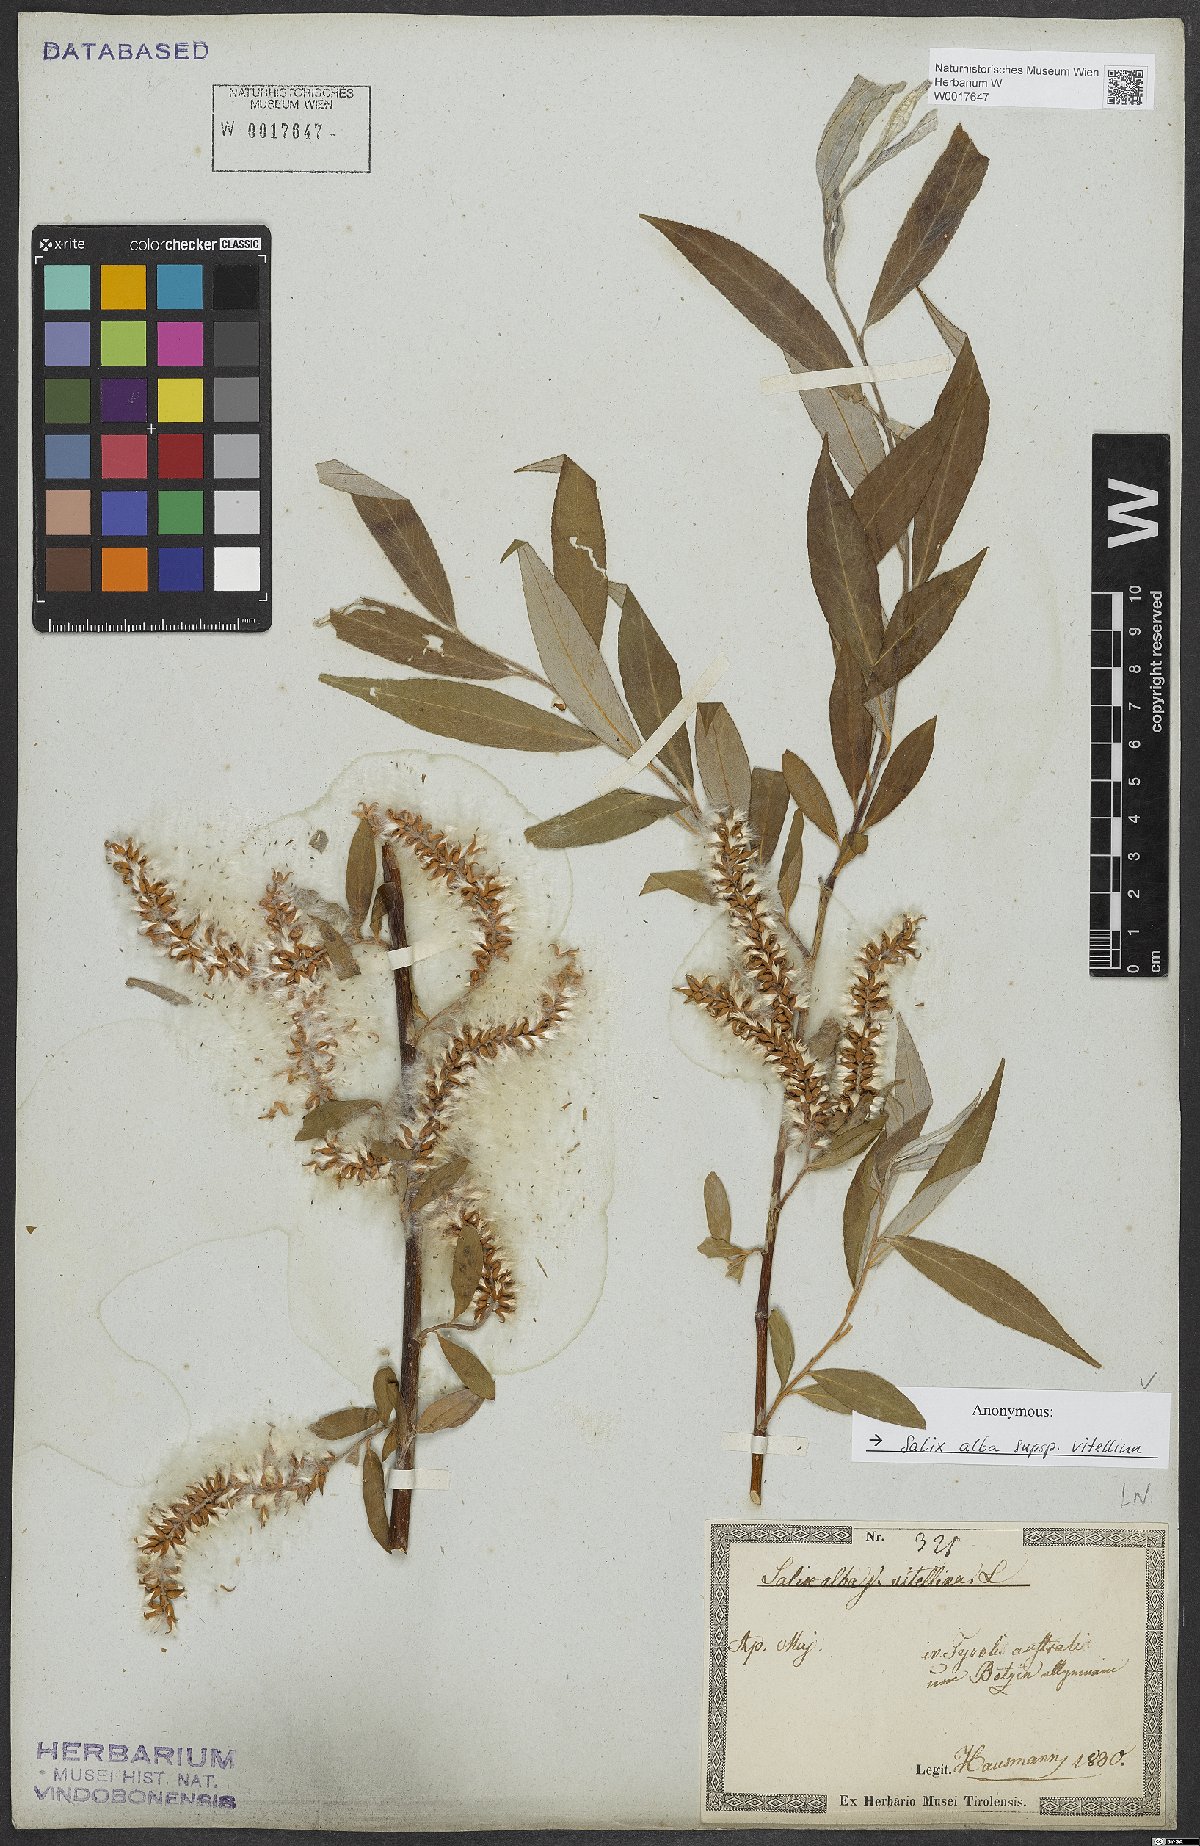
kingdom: Plantae
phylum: Tracheophyta
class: Magnoliopsida
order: Malpighiales
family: Salicaceae
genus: Salix
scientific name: Salix alba
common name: White willow
